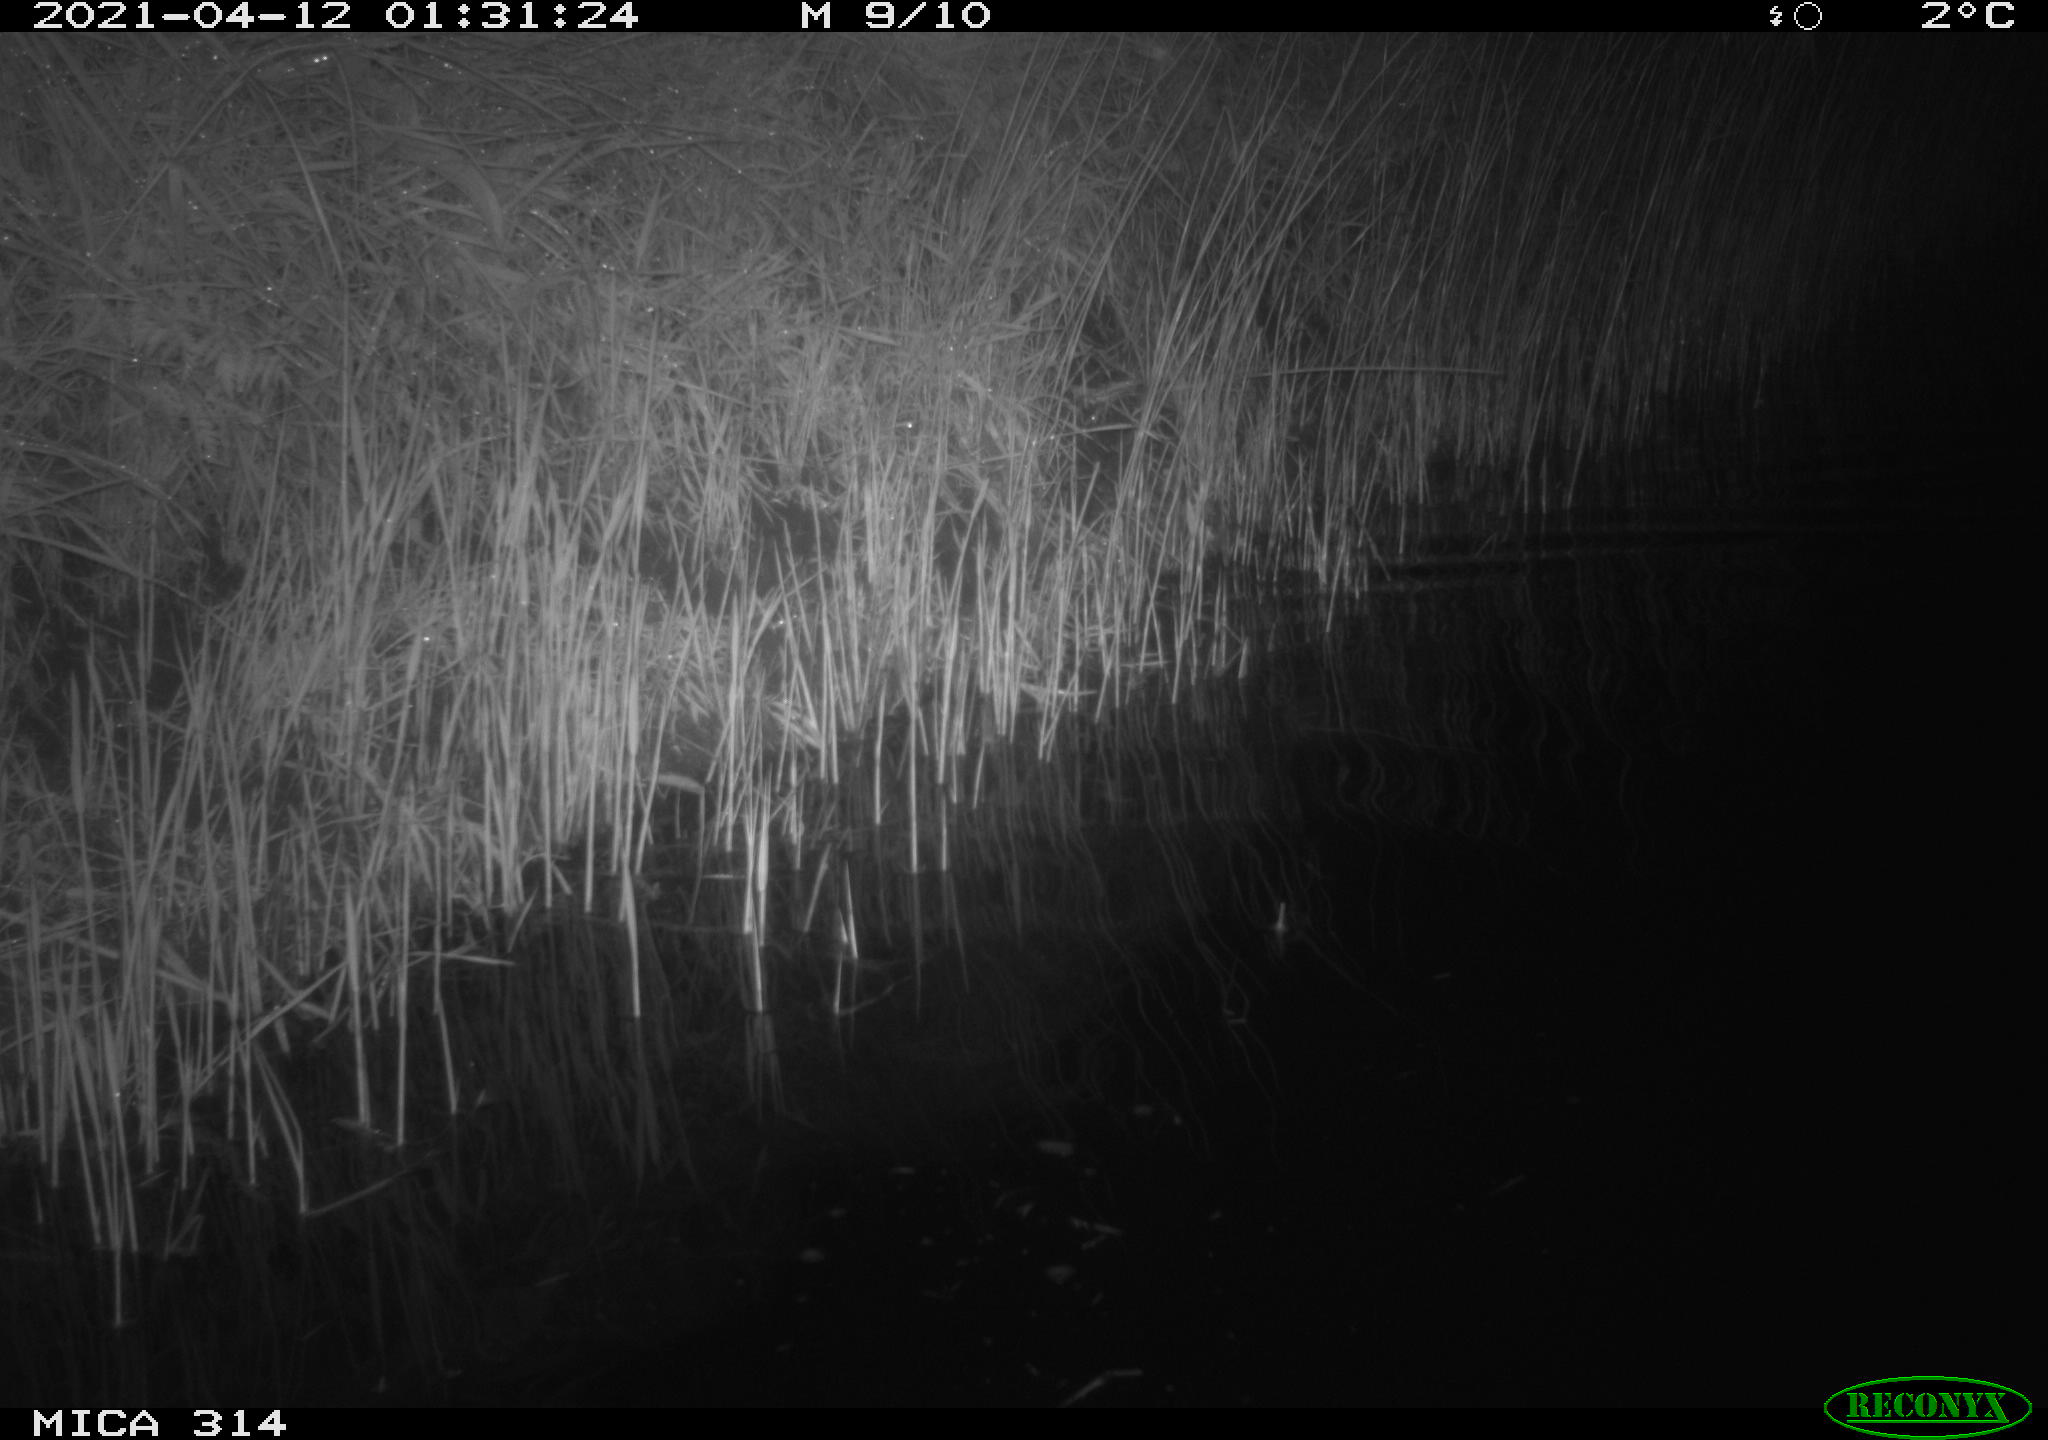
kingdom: Animalia
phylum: Chordata
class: Aves
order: Anseriformes
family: Anatidae
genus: Anas
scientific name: Anas platyrhynchos
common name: Mallard
